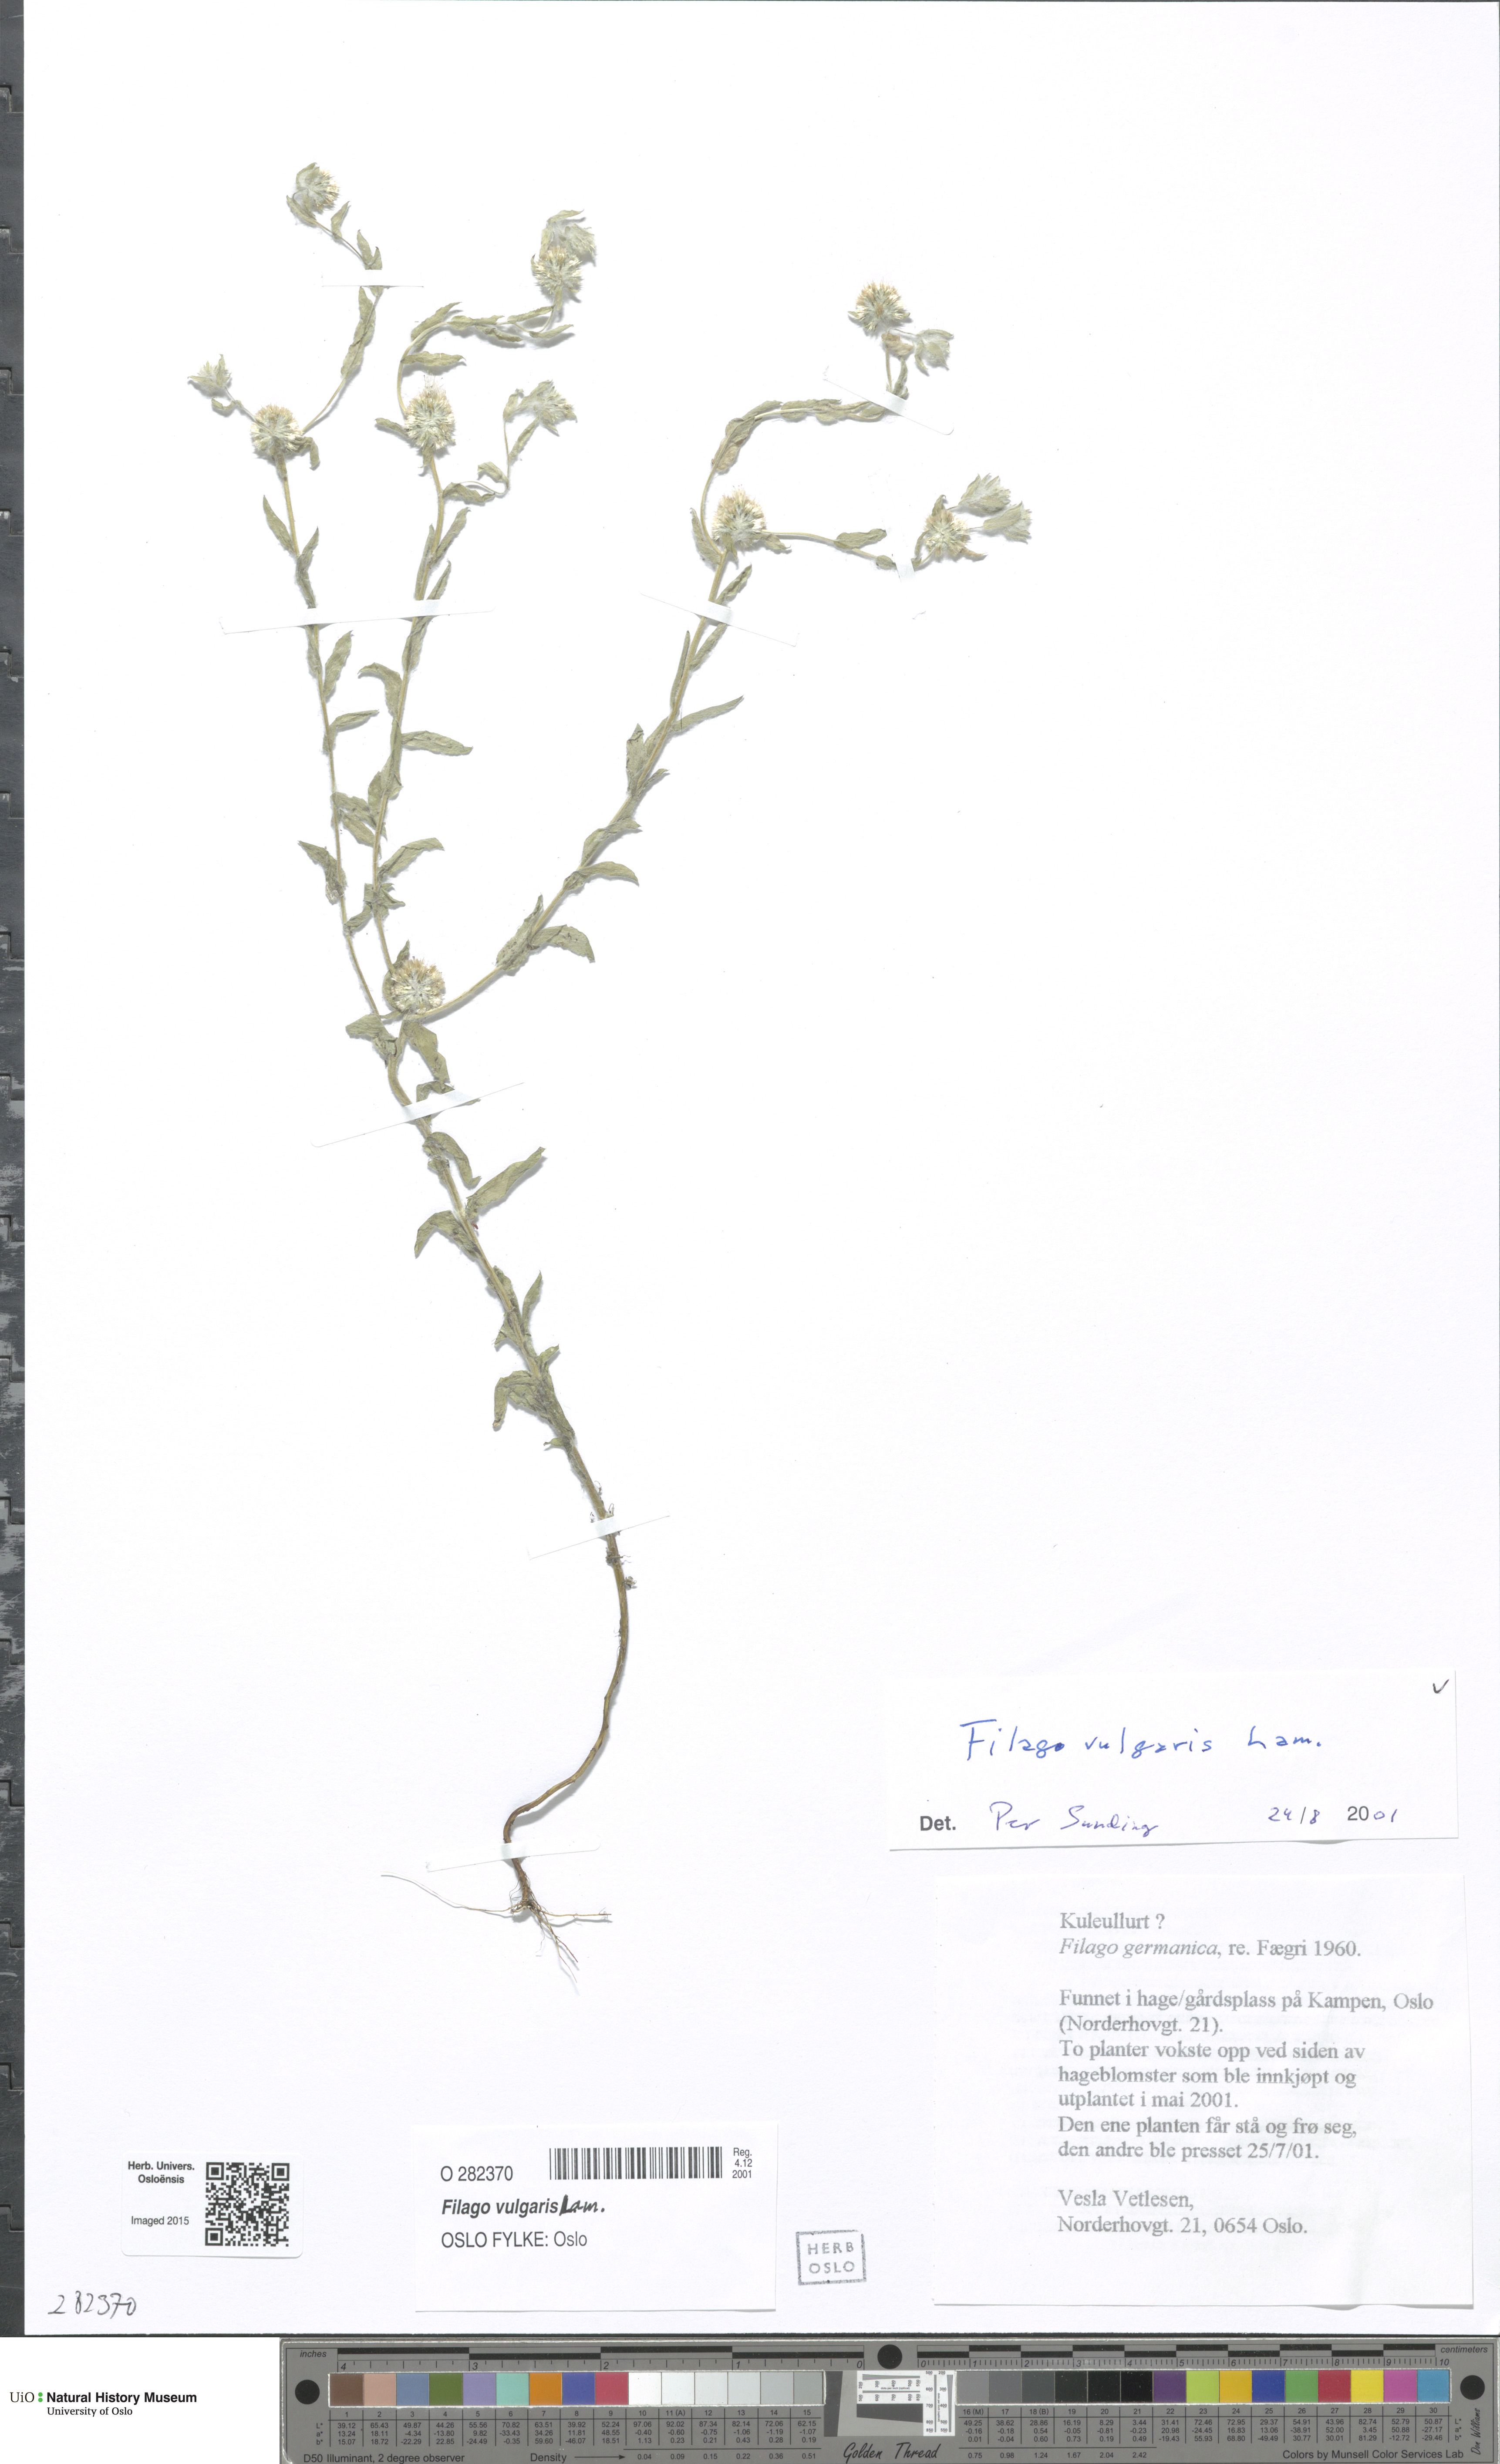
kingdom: Plantae
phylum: Tracheophyta
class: Magnoliopsida
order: Asterales
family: Asteraceae
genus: Filago
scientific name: Filago germanica
